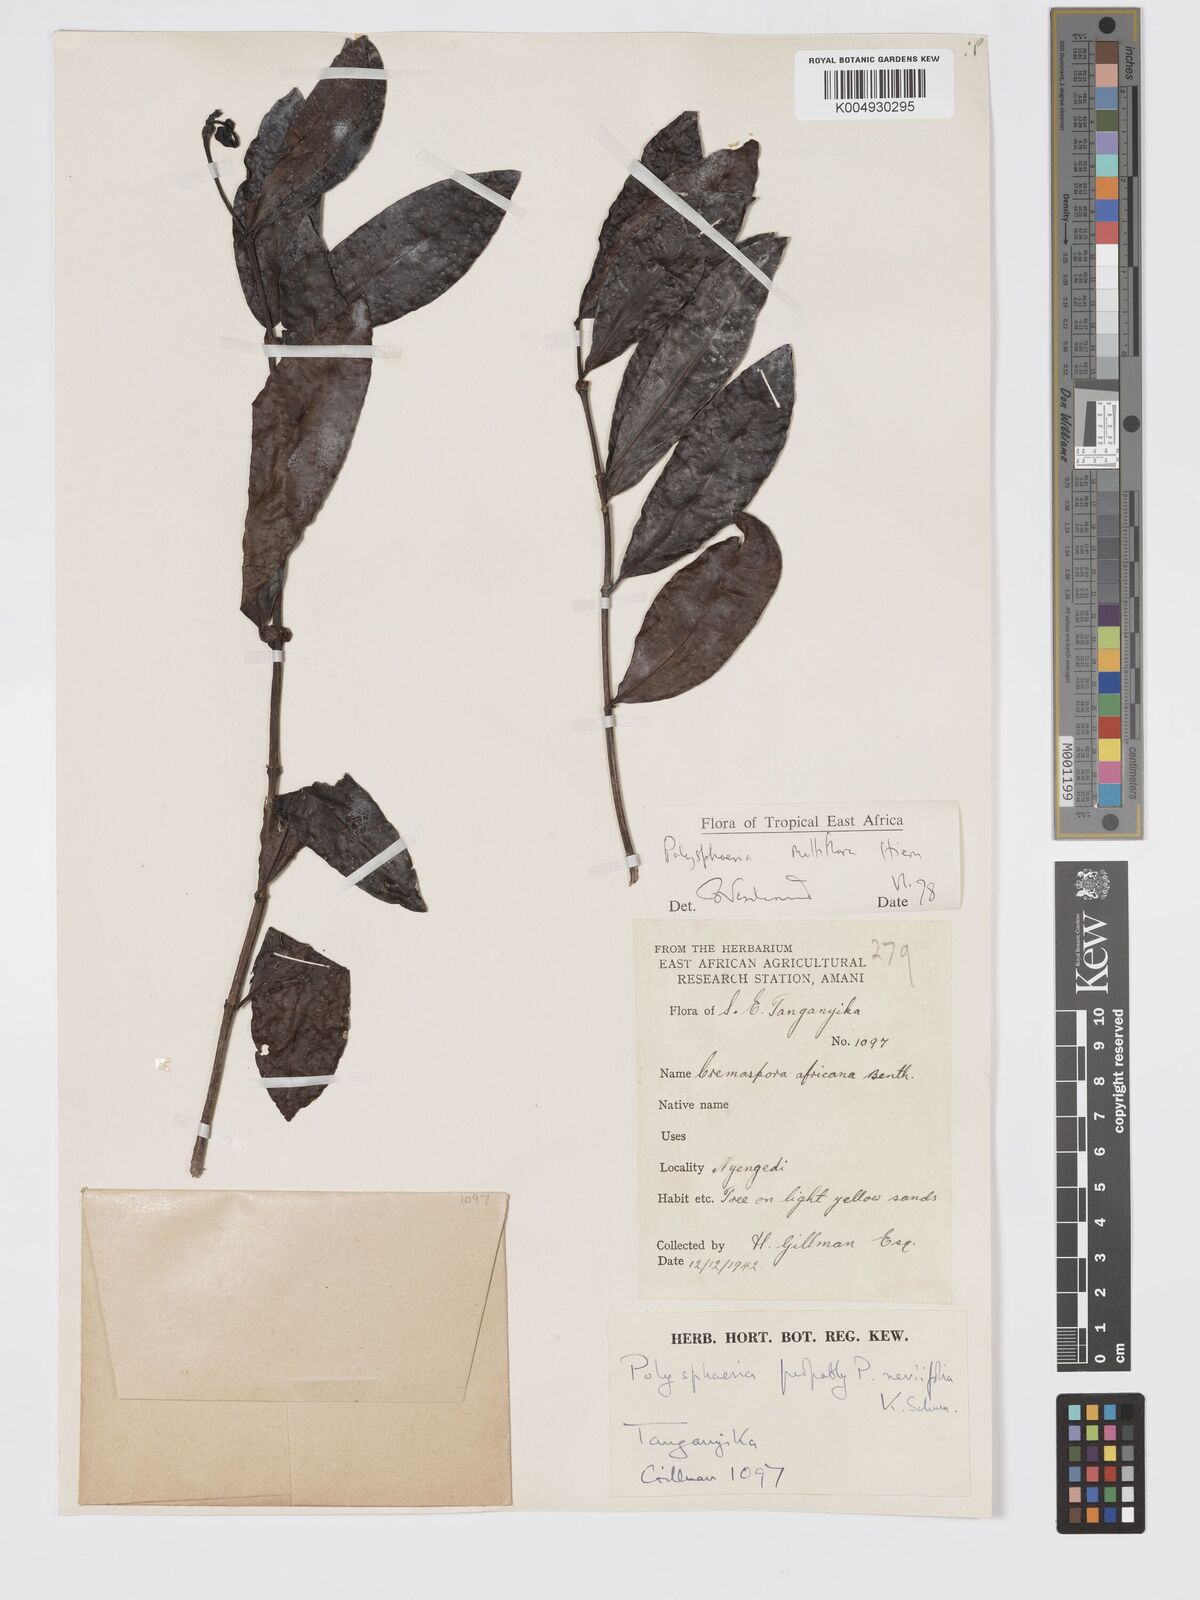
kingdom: Plantae
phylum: Tracheophyta
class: Magnoliopsida
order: Gentianales
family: Rubiaceae
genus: Polysphaeria
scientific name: Polysphaeria multiflora
